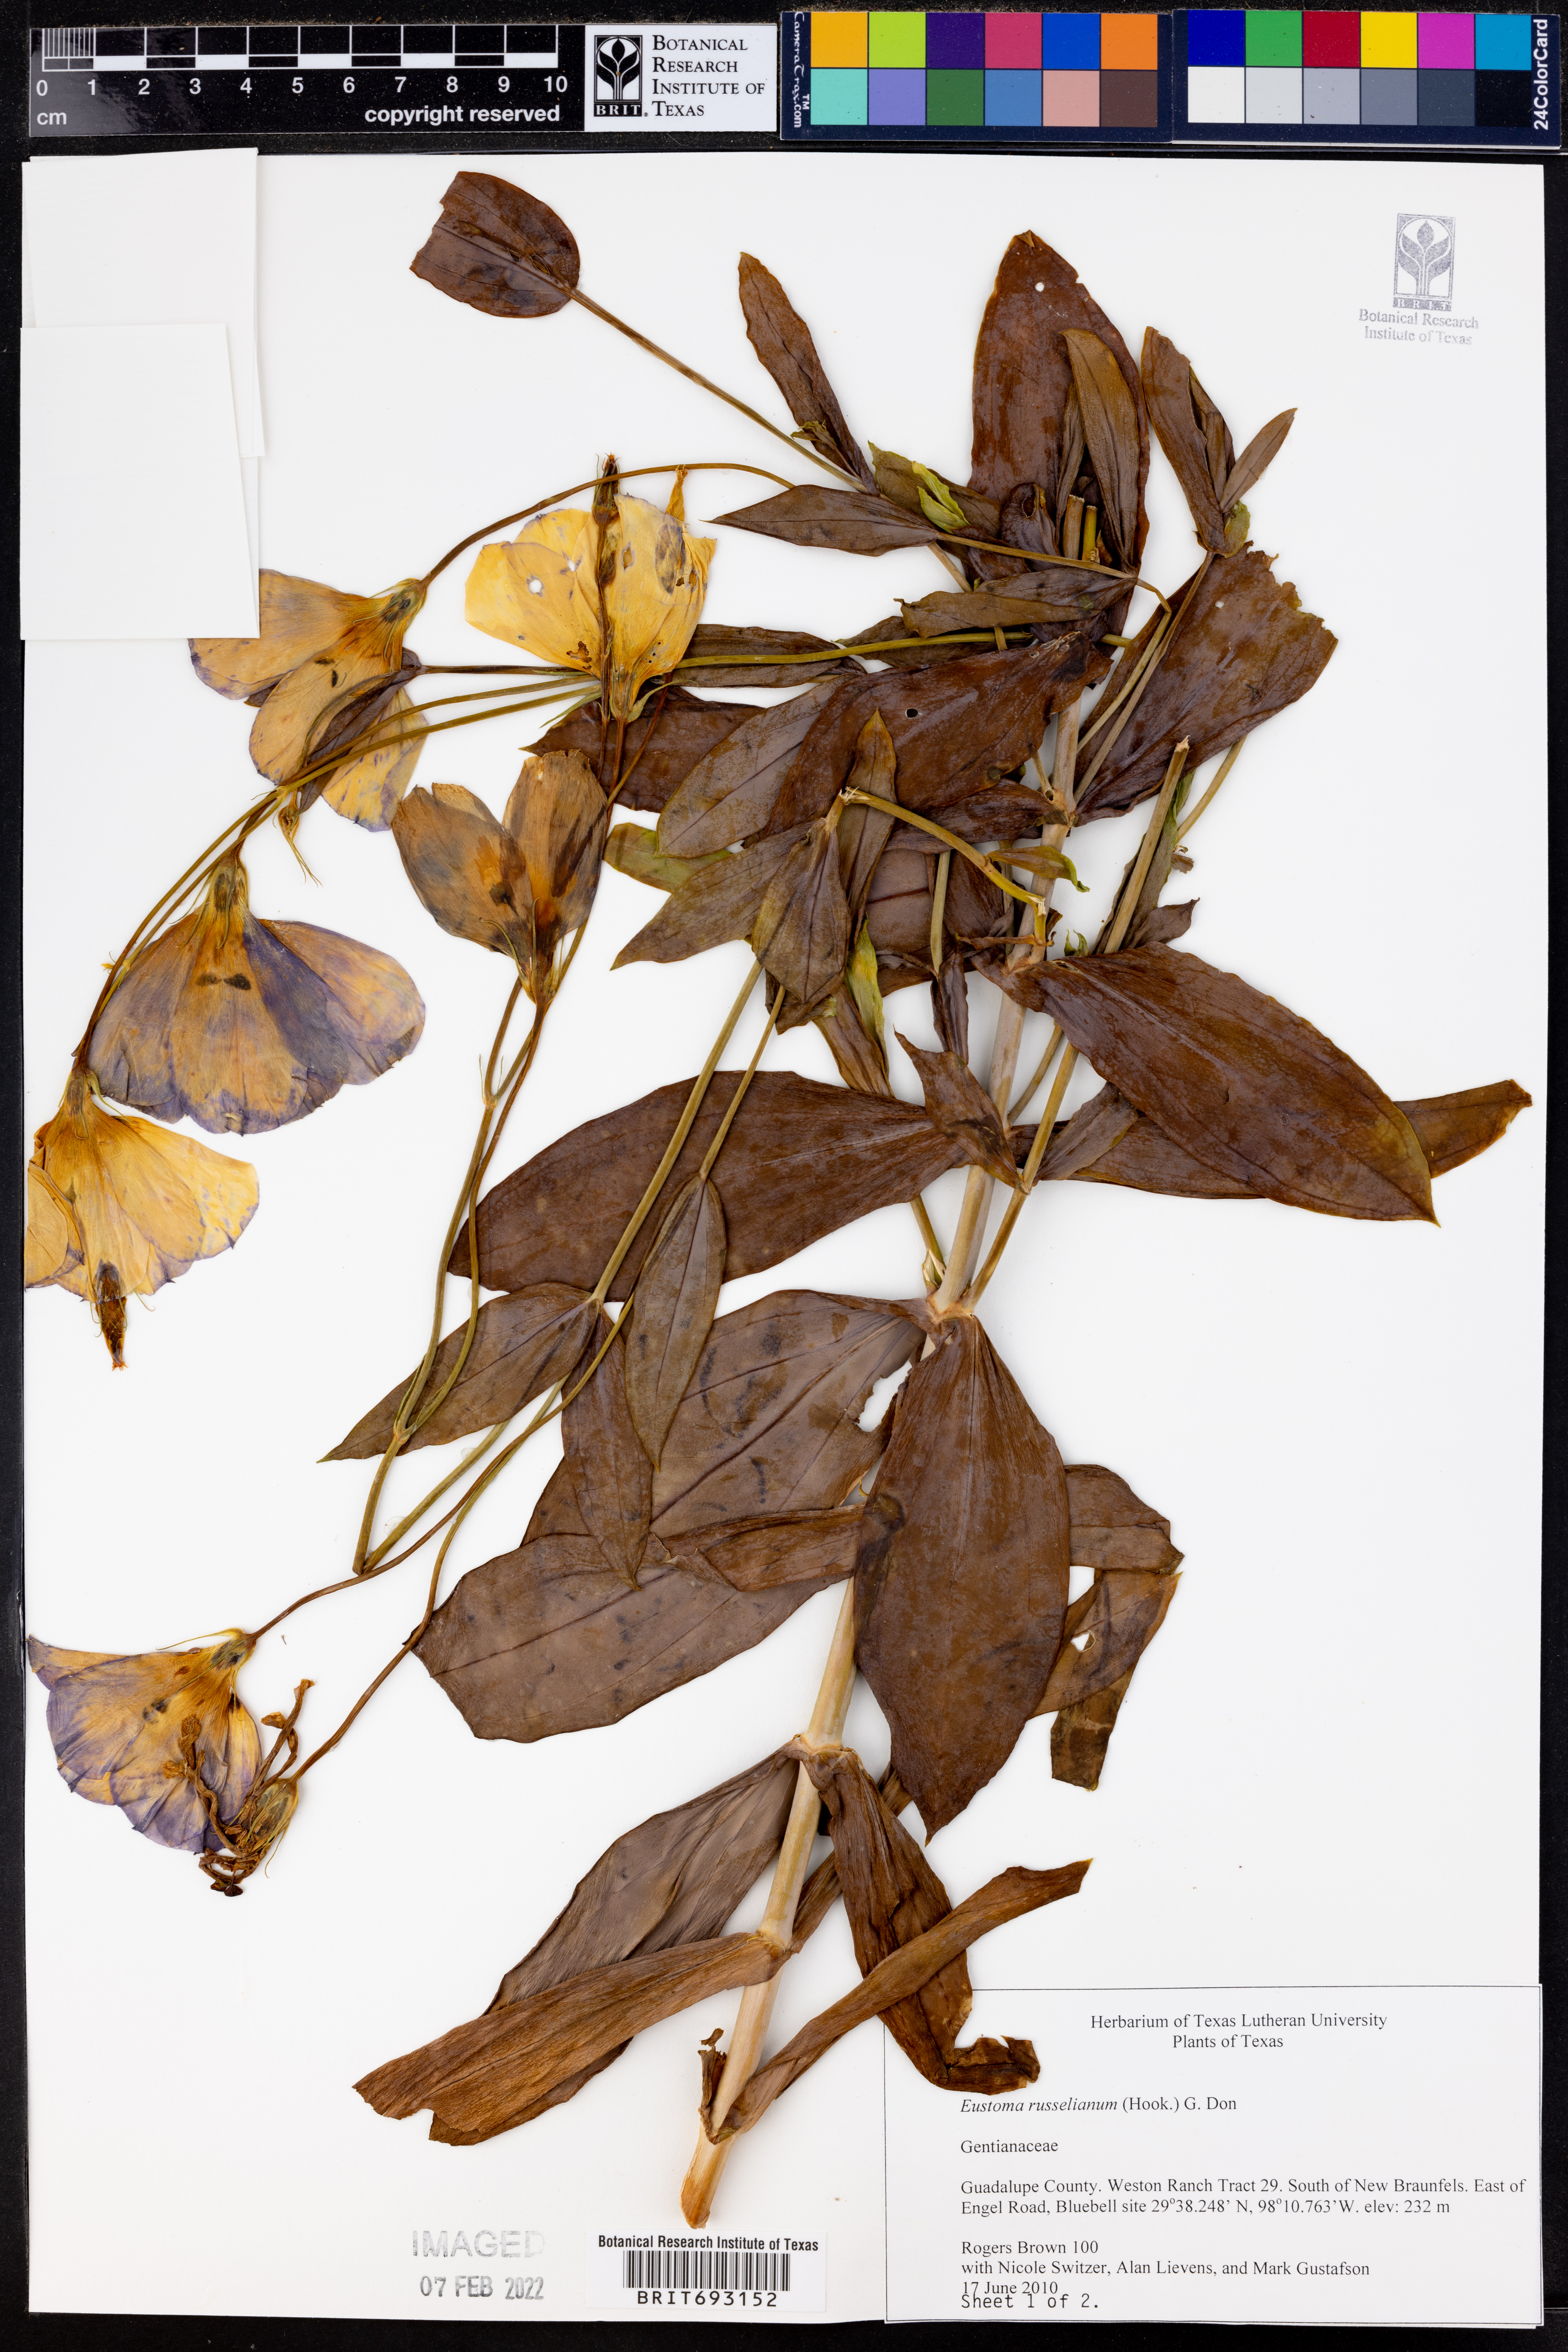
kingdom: Plantae
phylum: Tracheophyta
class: Magnoliopsida
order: Gentianales
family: Gentianaceae
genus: Eustoma
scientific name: Eustoma russellianum
